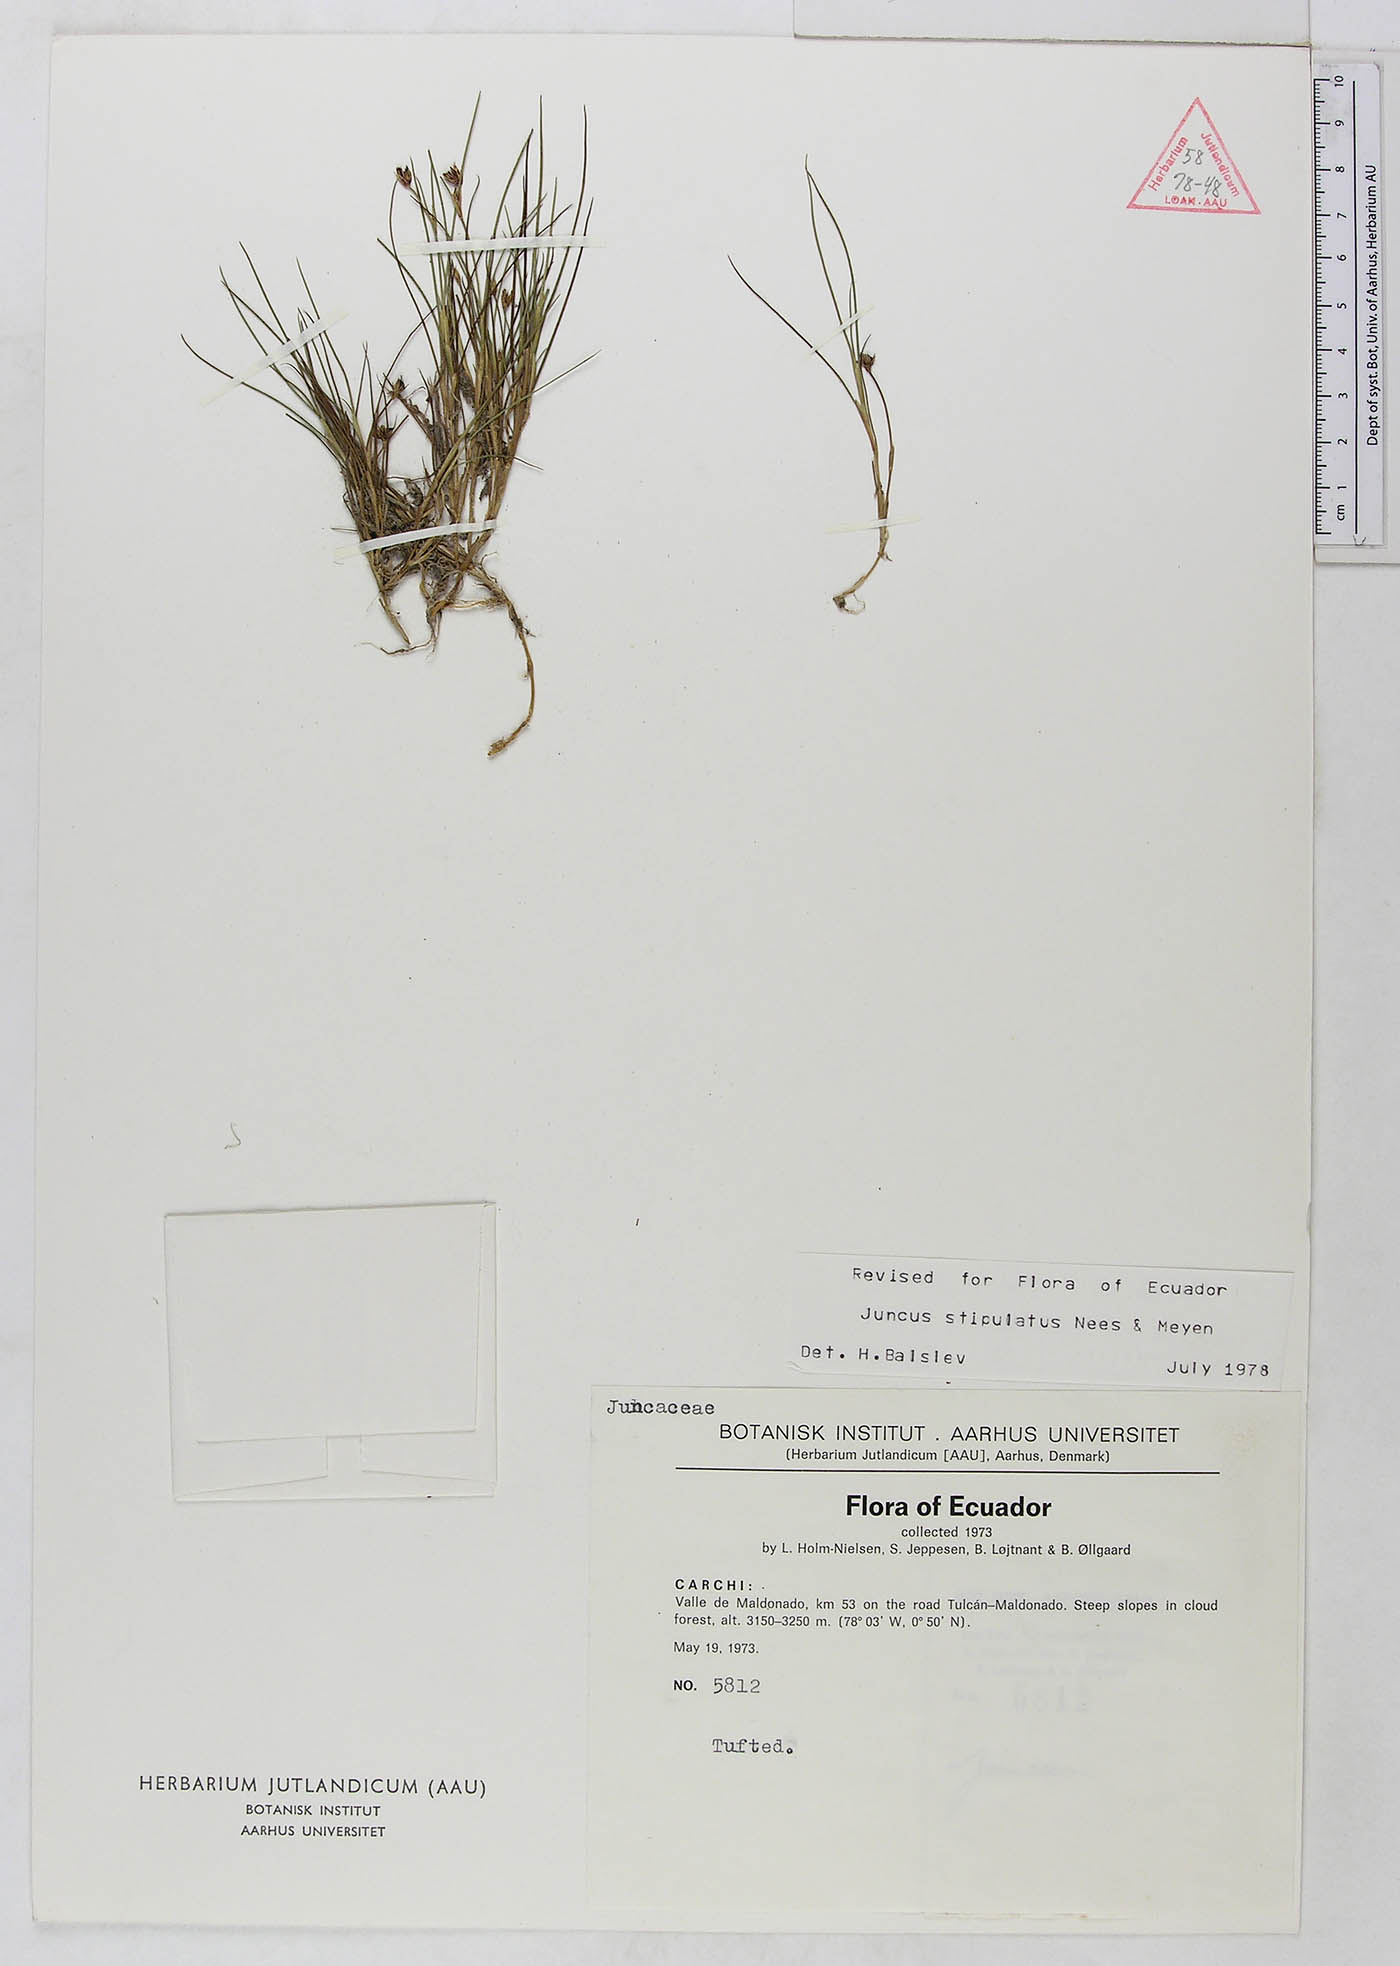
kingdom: Plantae
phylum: Tracheophyta
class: Liliopsida
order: Poales
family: Juncaceae
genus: Juncus
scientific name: Juncus stipulatus
